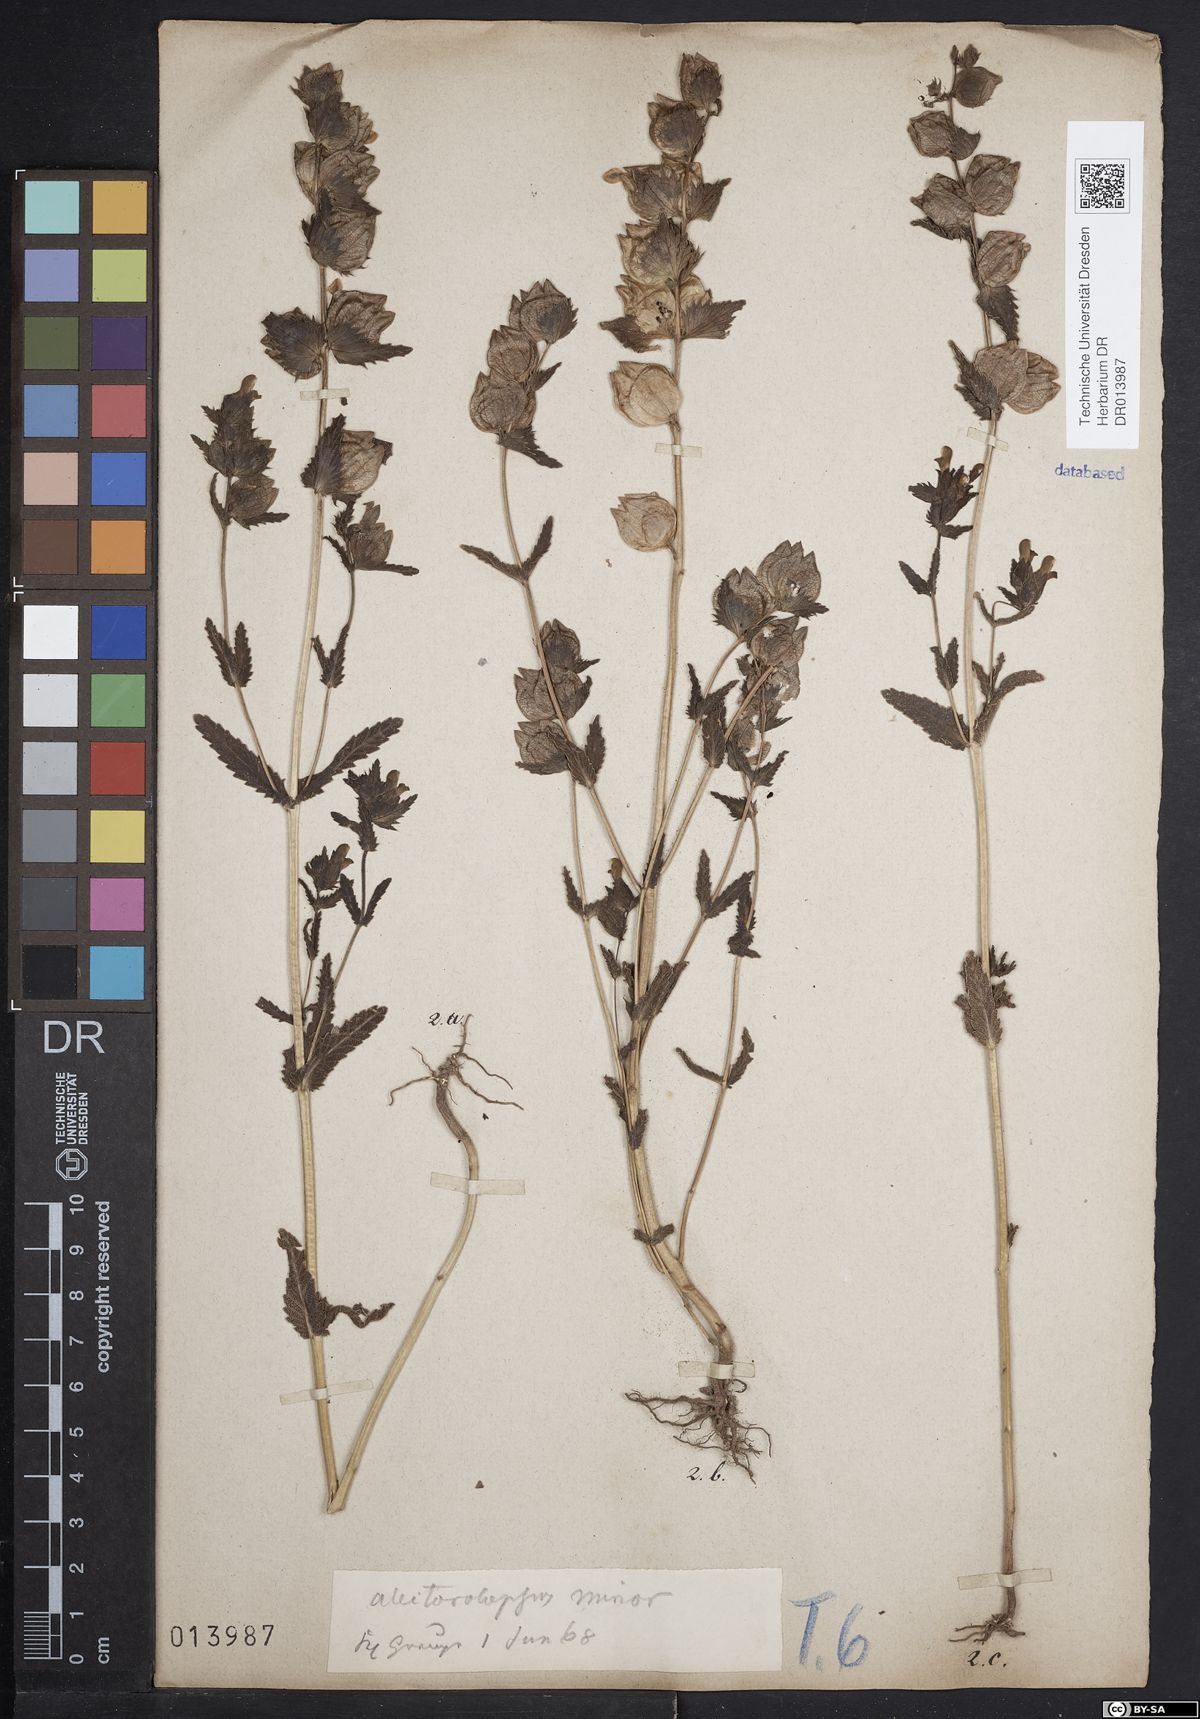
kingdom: Plantae
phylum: Tracheophyta
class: Magnoliopsida
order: Lamiales
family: Orobanchaceae
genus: Rhinanthus
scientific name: Rhinanthus minor
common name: Yellow-rattle
